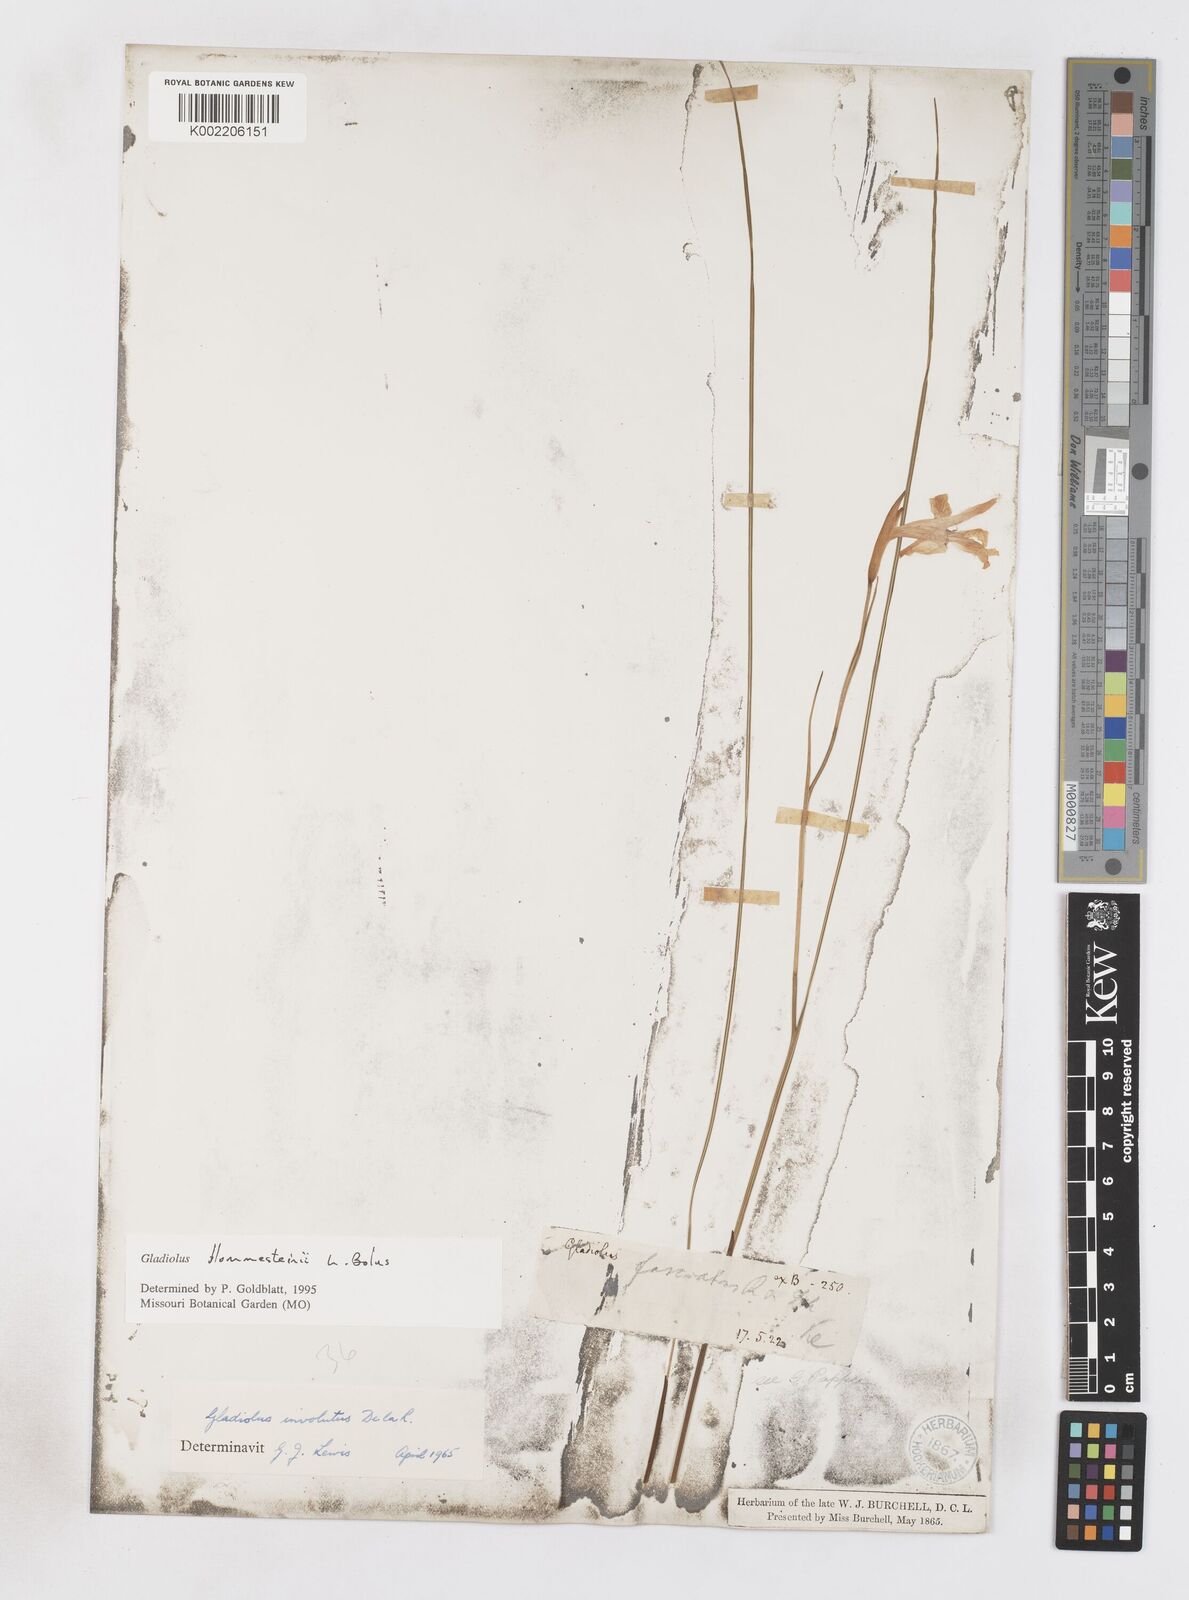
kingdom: Plantae
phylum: Tracheophyta
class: Liliopsida
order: Asparagales
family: Iridaceae
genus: Gladiolus
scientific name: Gladiolus blommesteinii
